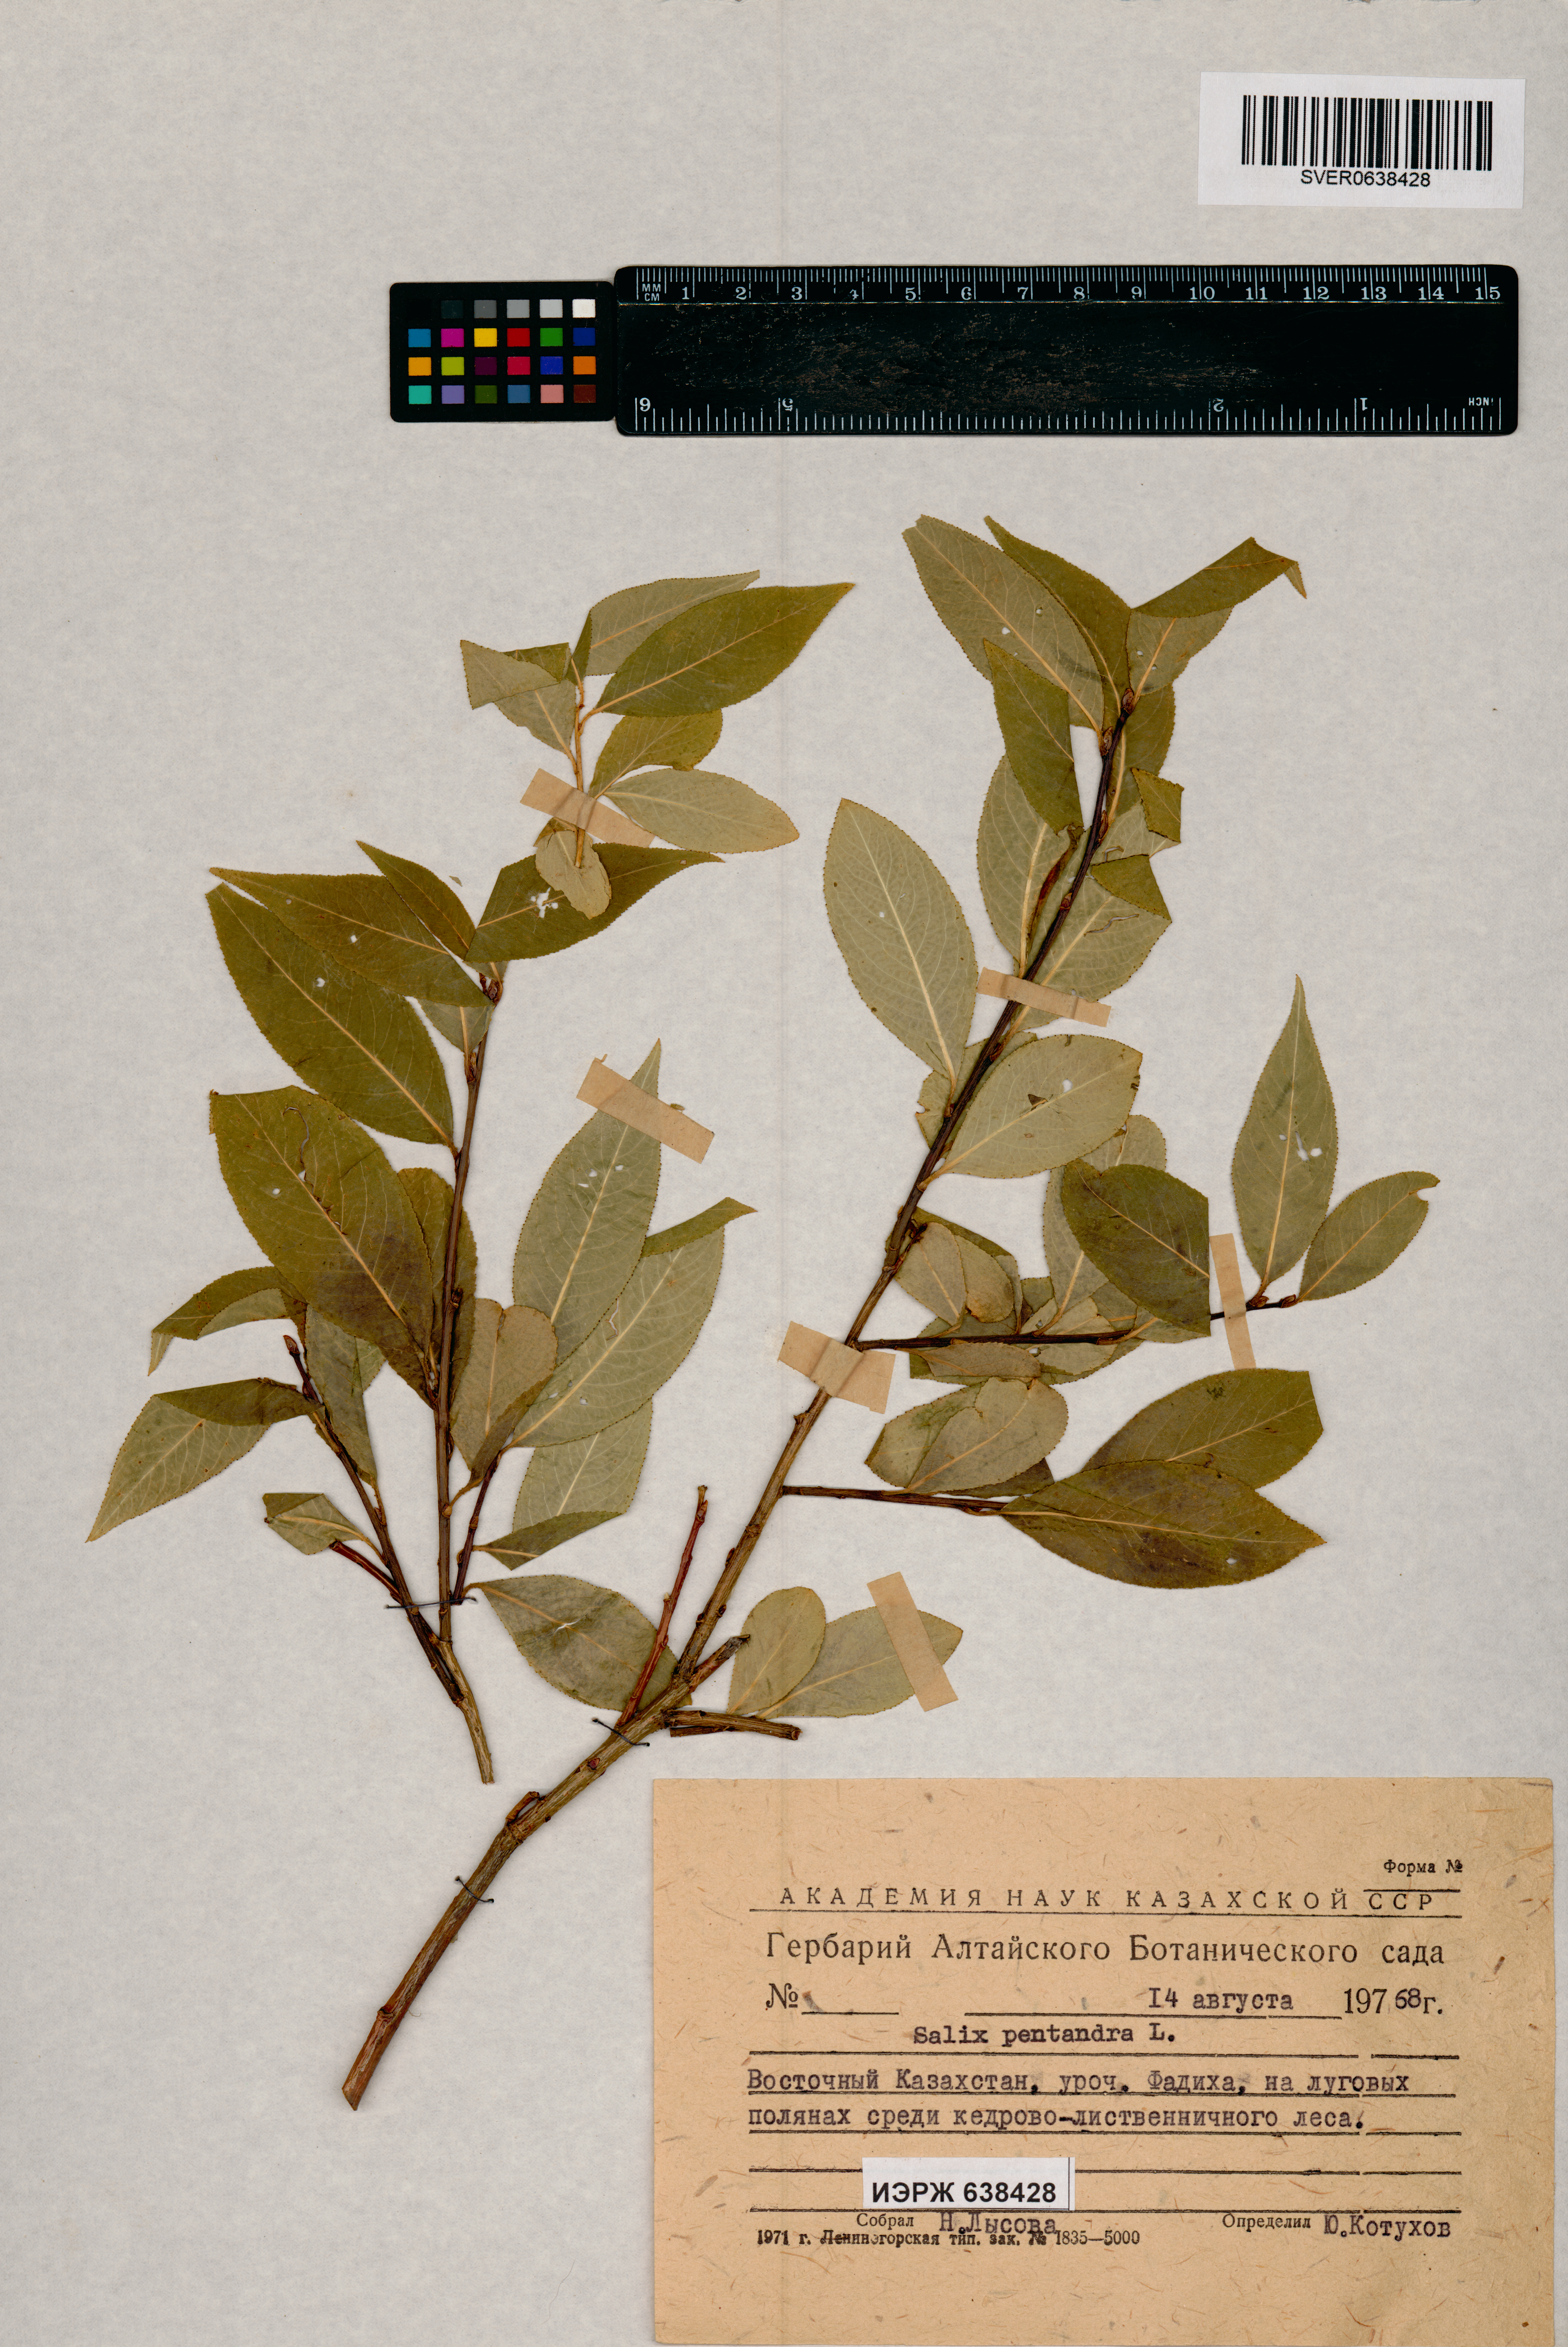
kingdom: Plantae
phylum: Tracheophyta
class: Magnoliopsida
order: Malpighiales
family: Salicaceae
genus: Salix
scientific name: Salix pentandra
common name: Bay willow
